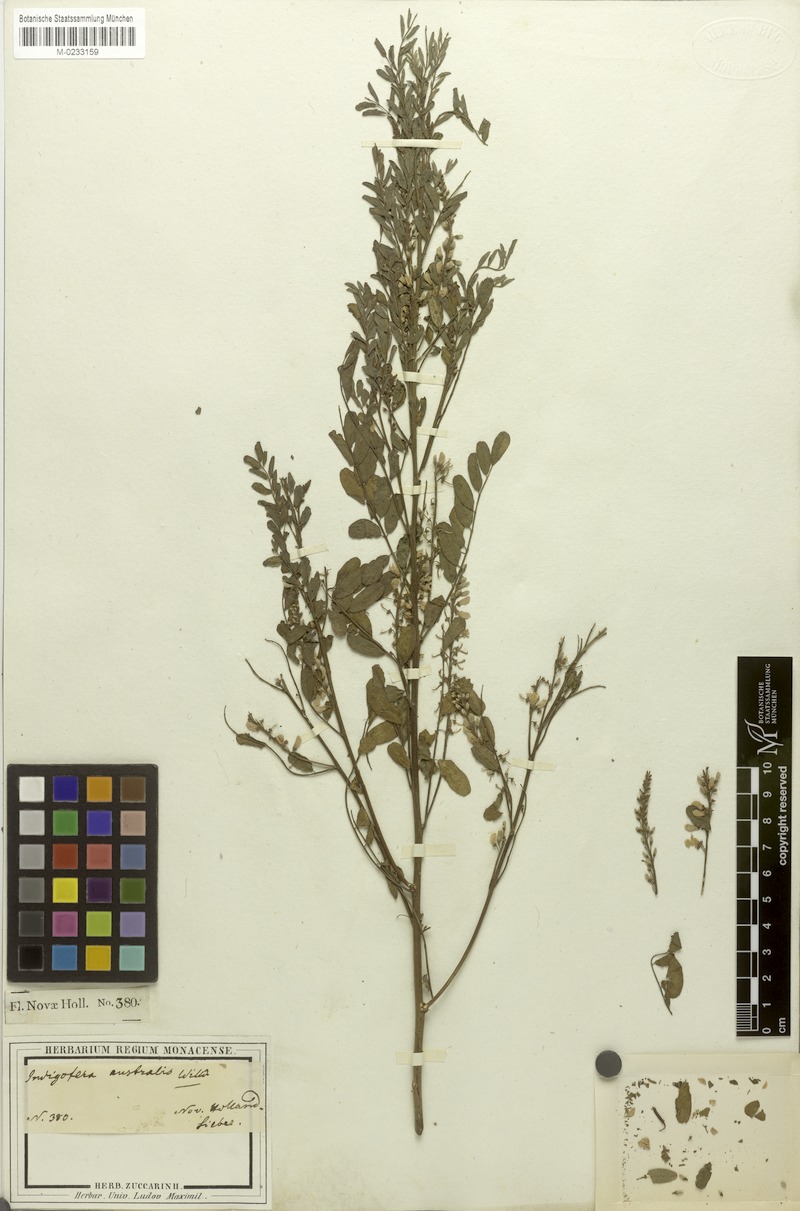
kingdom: Plantae
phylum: Tracheophyta
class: Magnoliopsida
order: Fabales
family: Fabaceae
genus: Indigofera
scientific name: Indigofera australis
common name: Australian indigo
